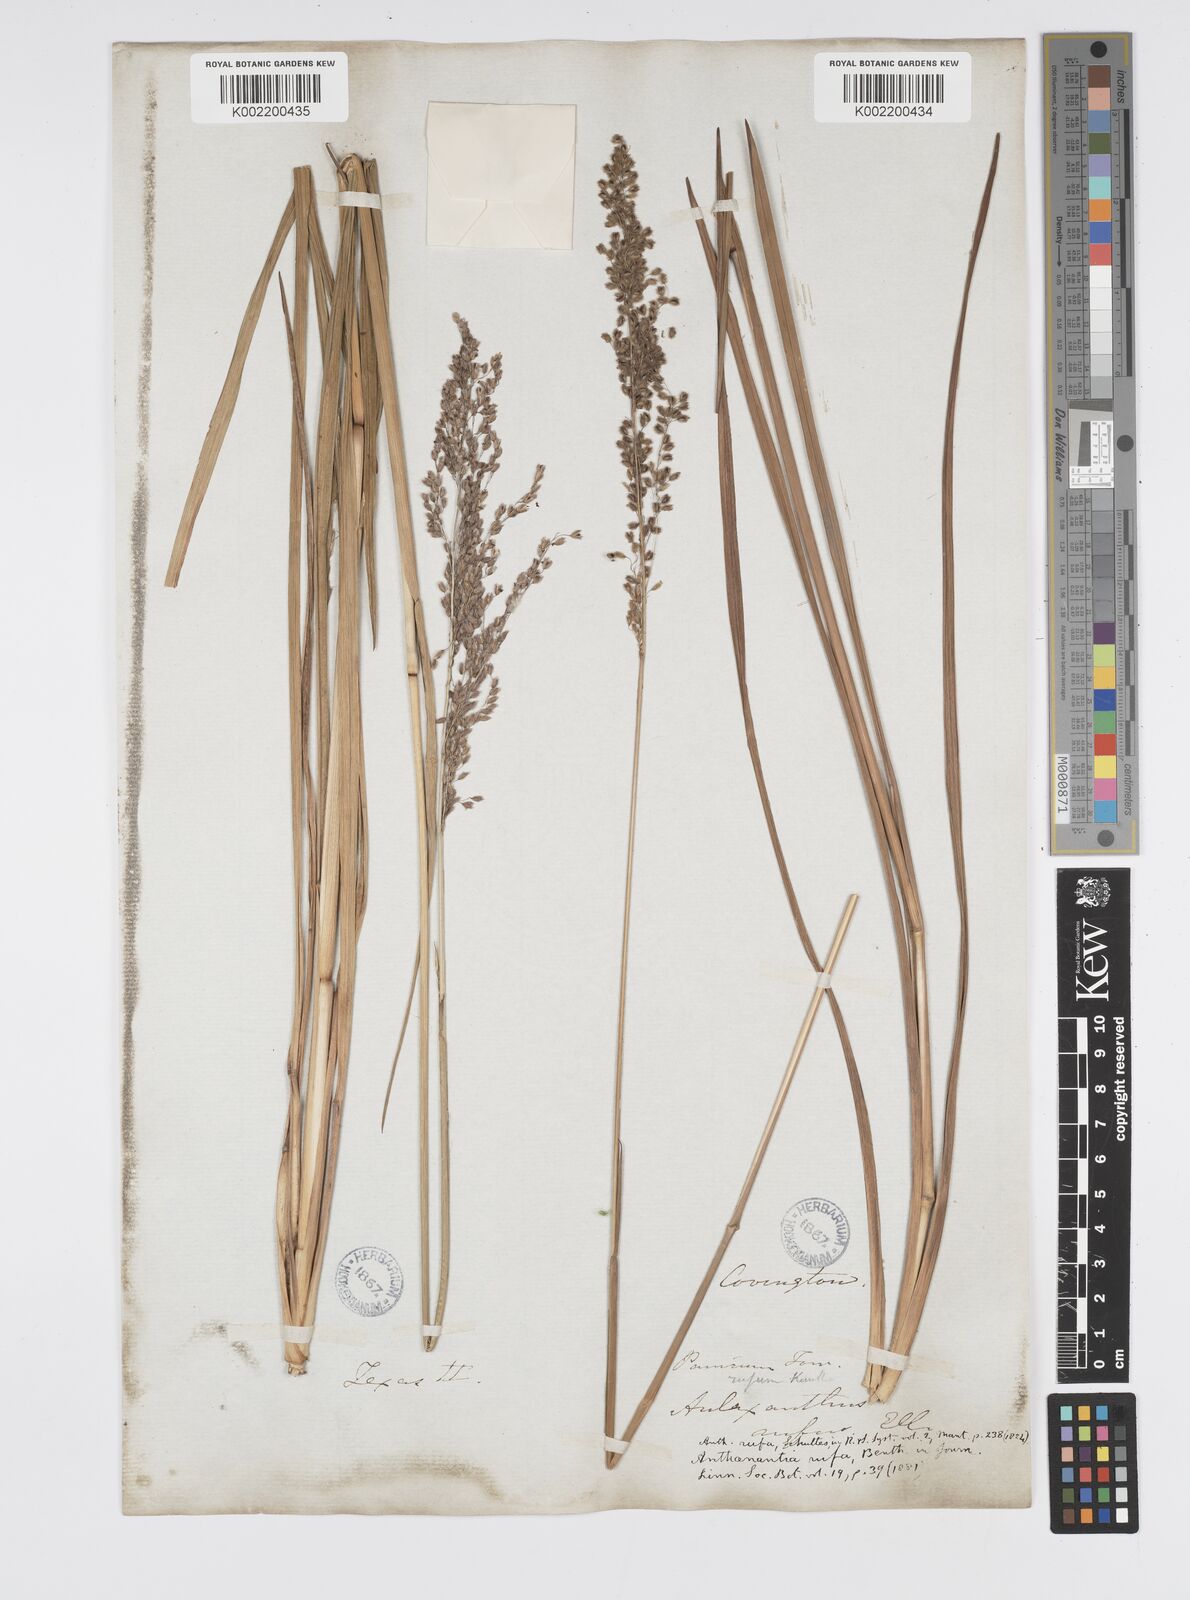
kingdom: Plantae
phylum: Tracheophyta
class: Liliopsida
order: Poales
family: Poaceae
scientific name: Poaceae
